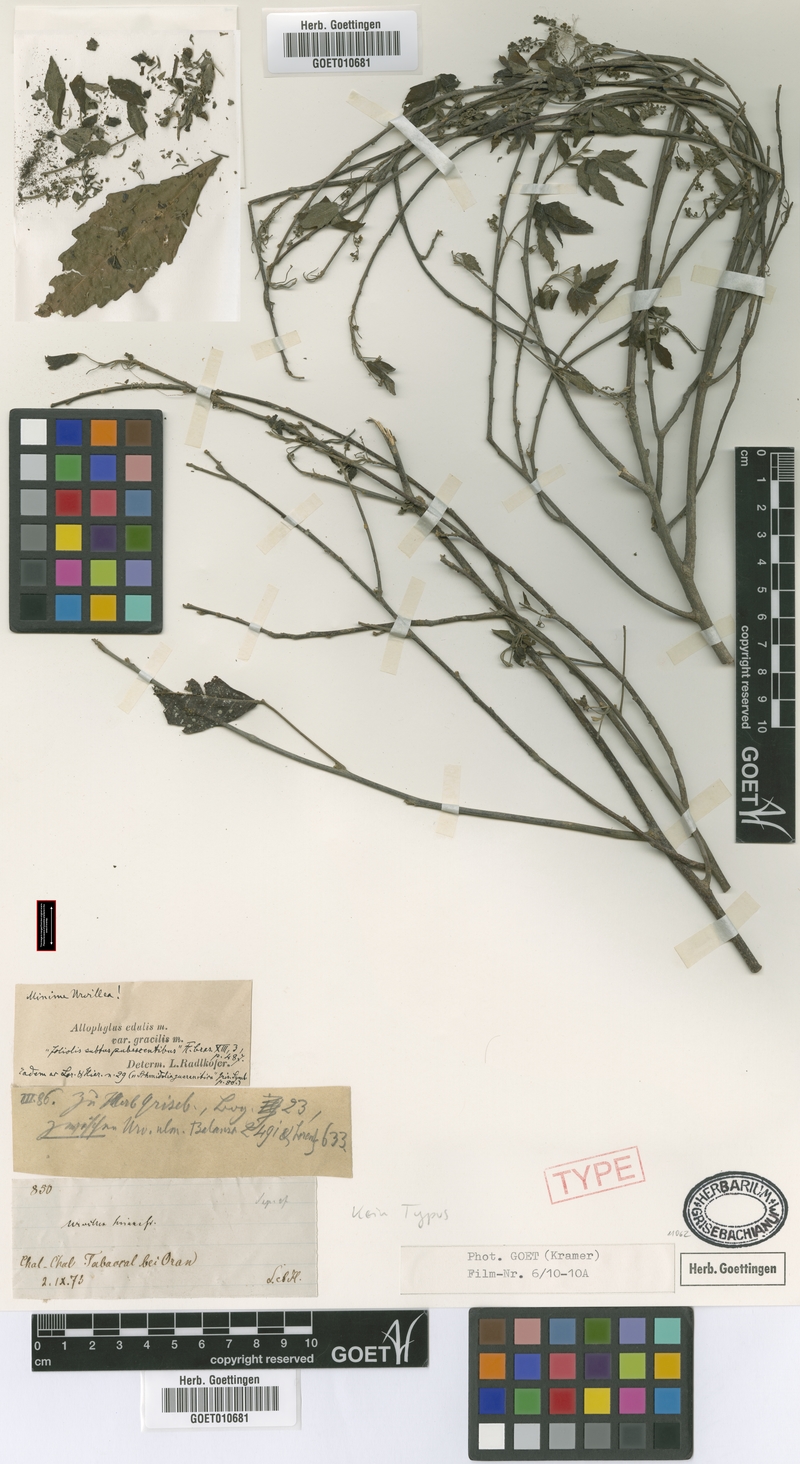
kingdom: Plantae
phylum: Tracheophyta
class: Magnoliopsida
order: Sapindales
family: Sapindaceae
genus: Allophylus
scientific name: Allophylus edulis
